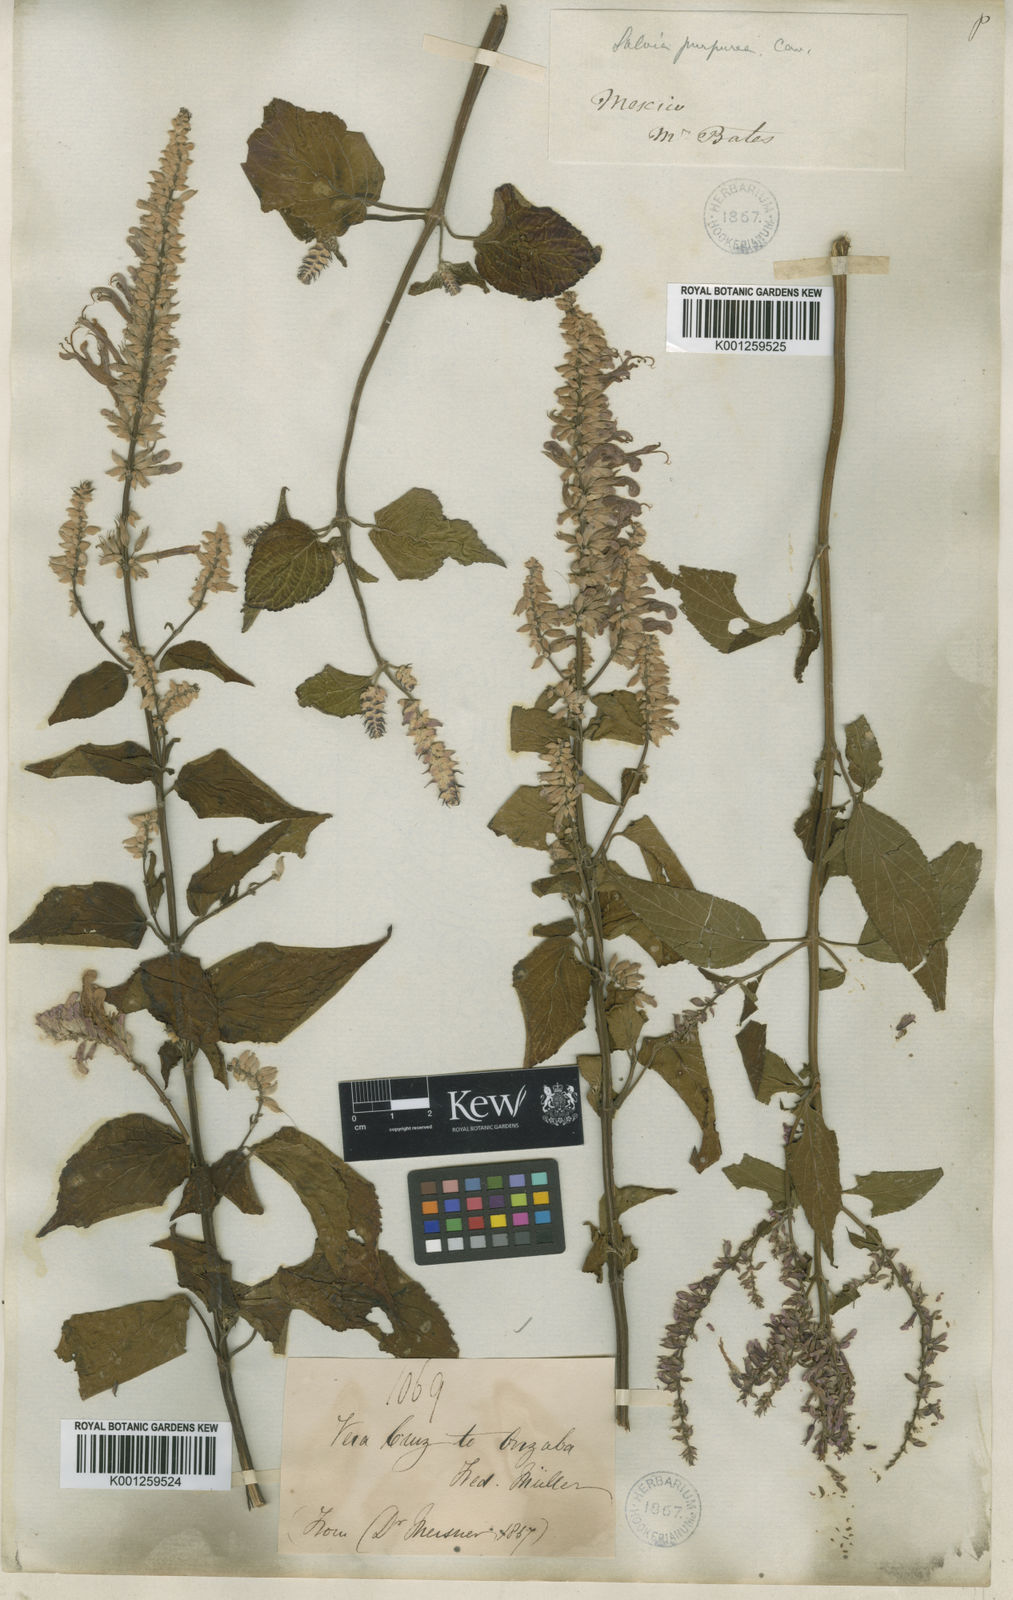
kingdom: Plantae
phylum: Tracheophyta
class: Magnoliopsida
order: Lamiales
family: Lamiaceae
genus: Salvia
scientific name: Salvia
